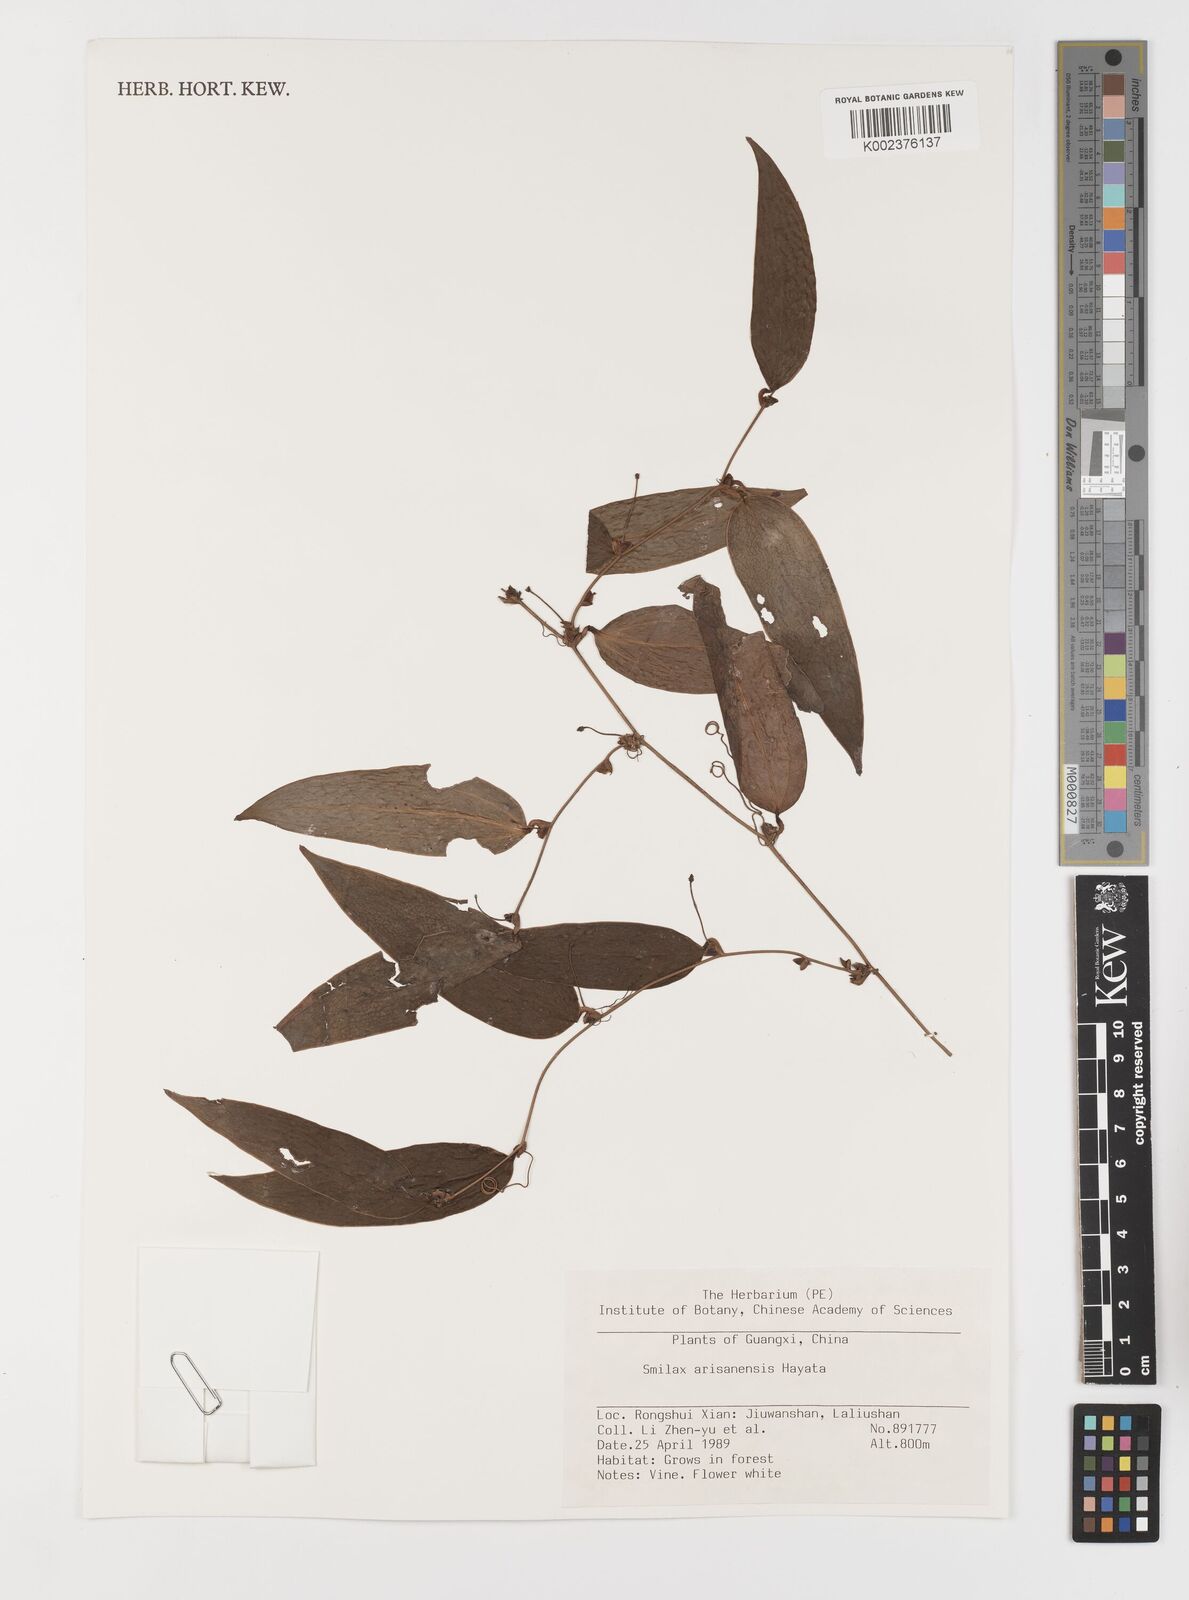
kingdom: Plantae
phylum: Tracheophyta
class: Liliopsida
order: Liliales
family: Smilacaceae
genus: Smilax
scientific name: Smilax arisanensis
